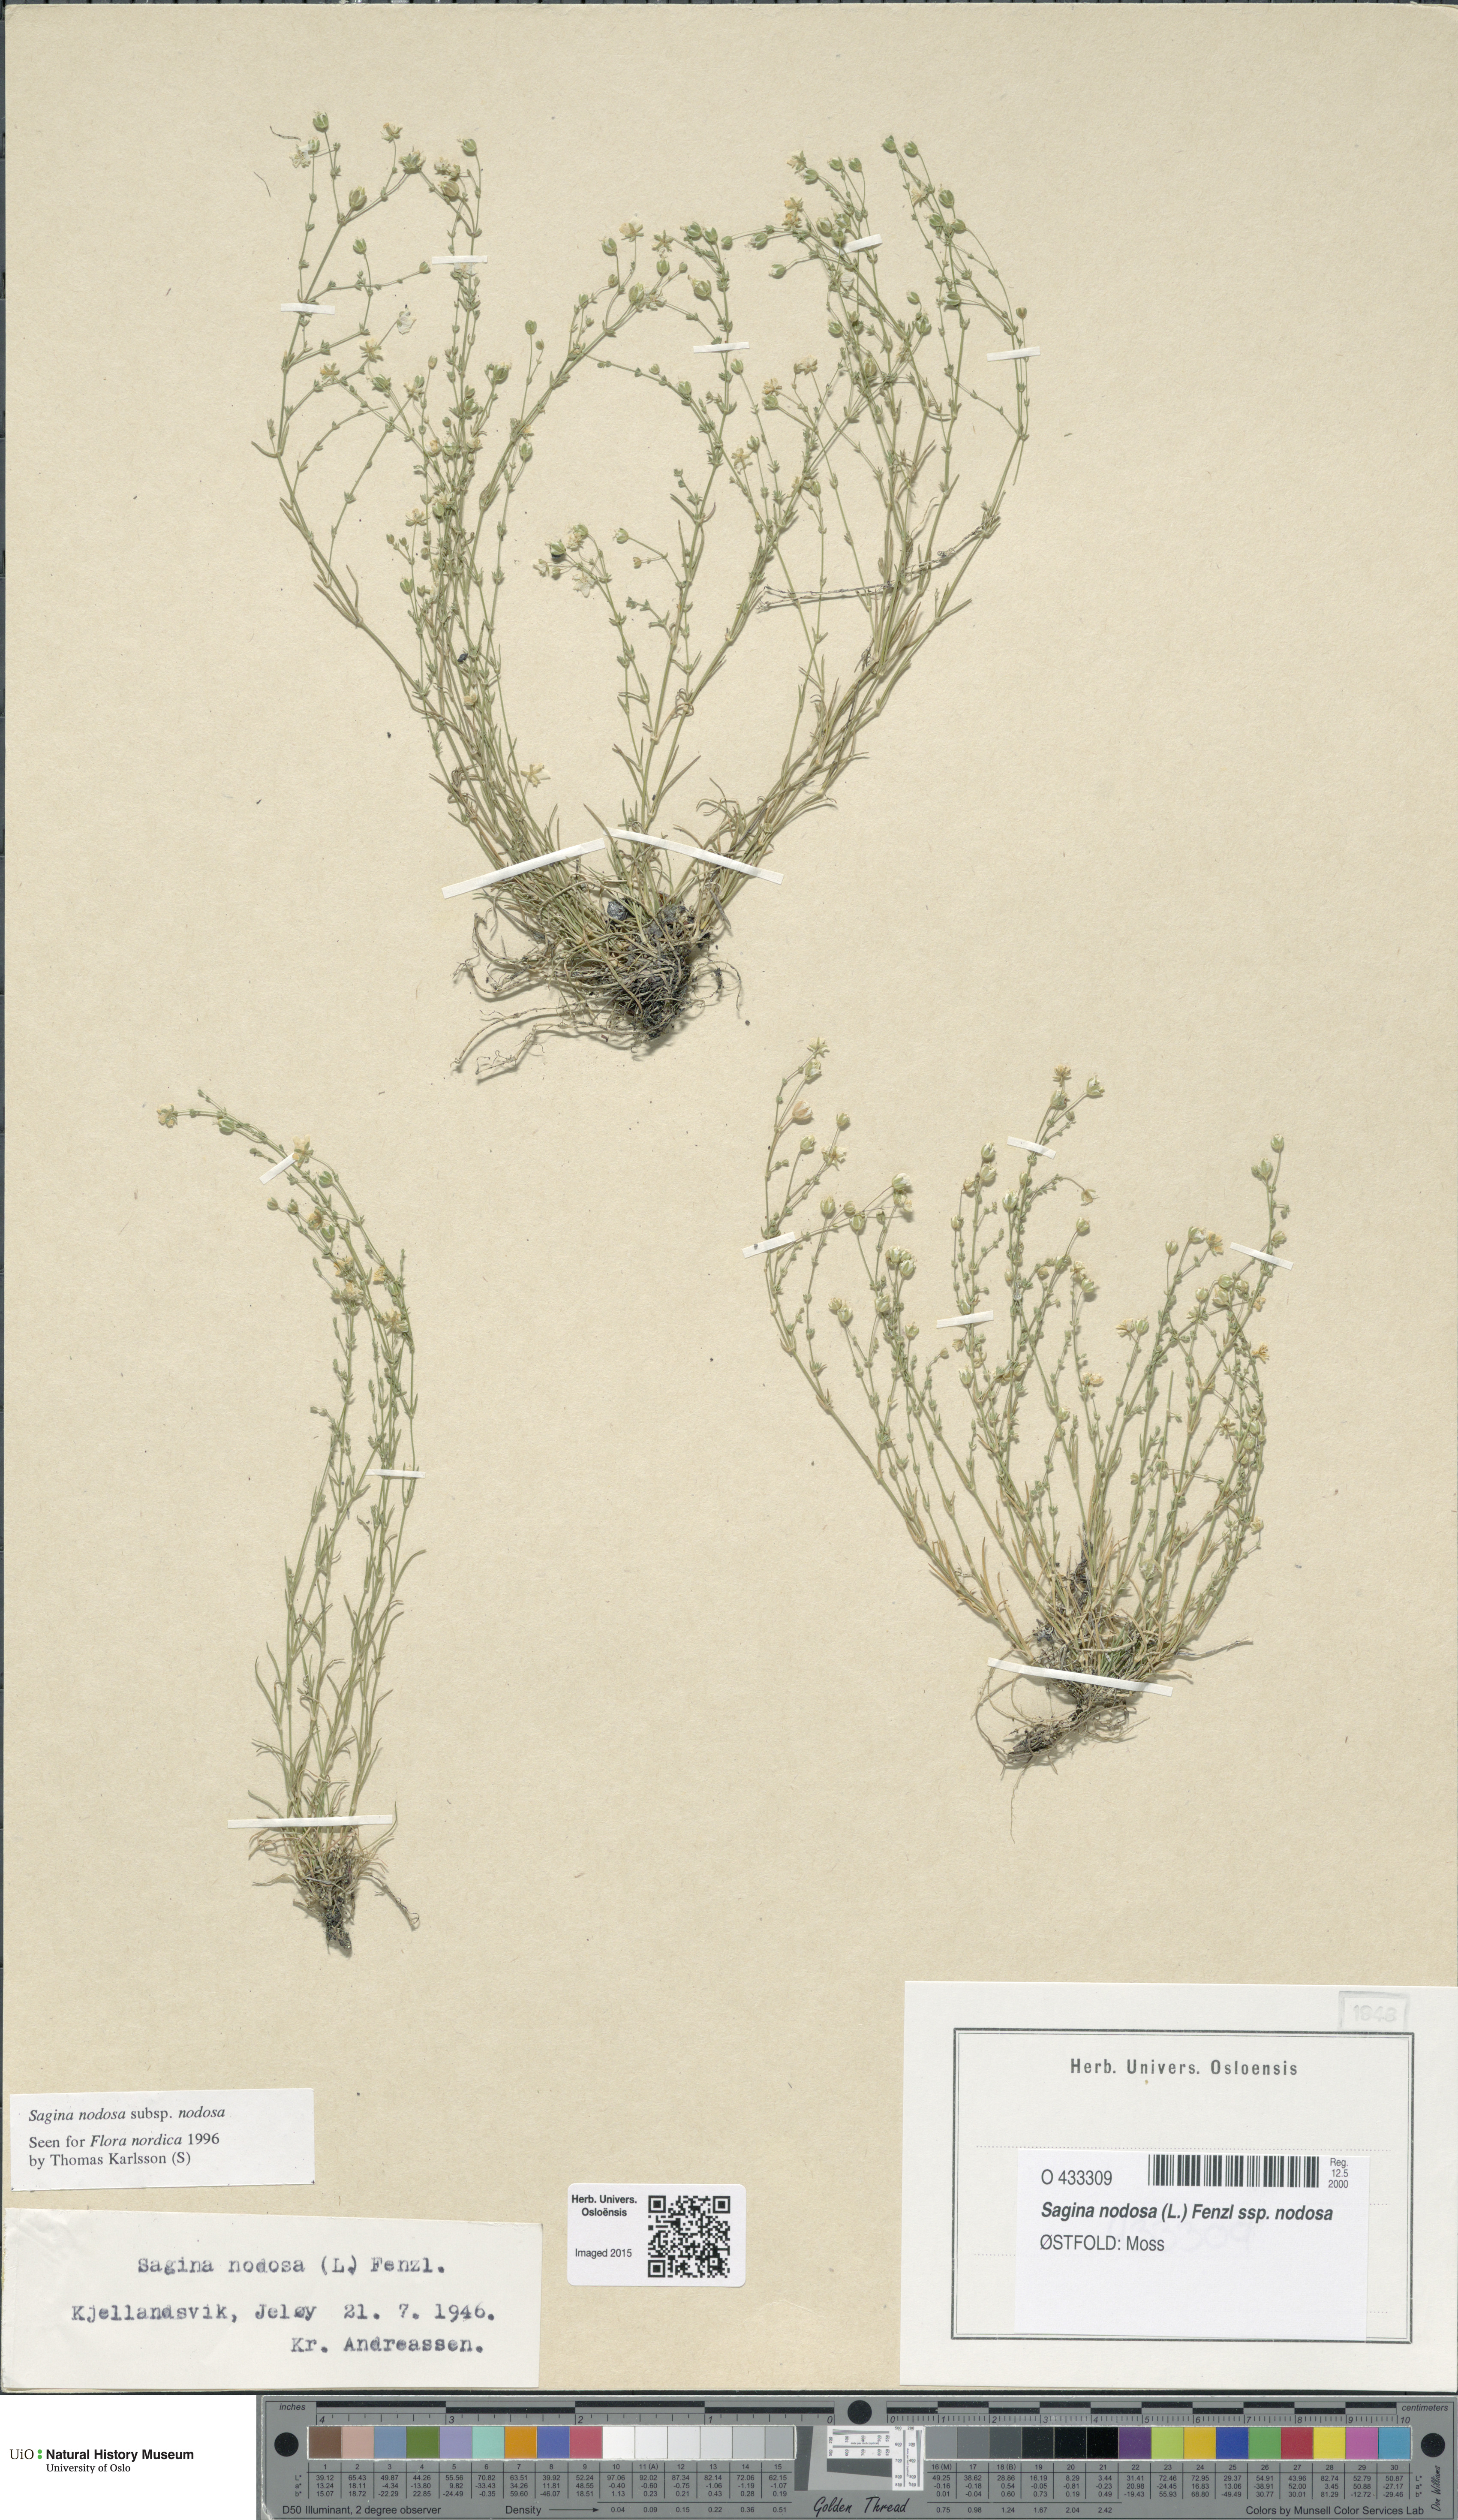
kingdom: Plantae
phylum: Tracheophyta
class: Magnoliopsida
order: Caryophyllales
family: Caryophyllaceae
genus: Sagina
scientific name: Sagina nodosa
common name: Knotted pearlwort
